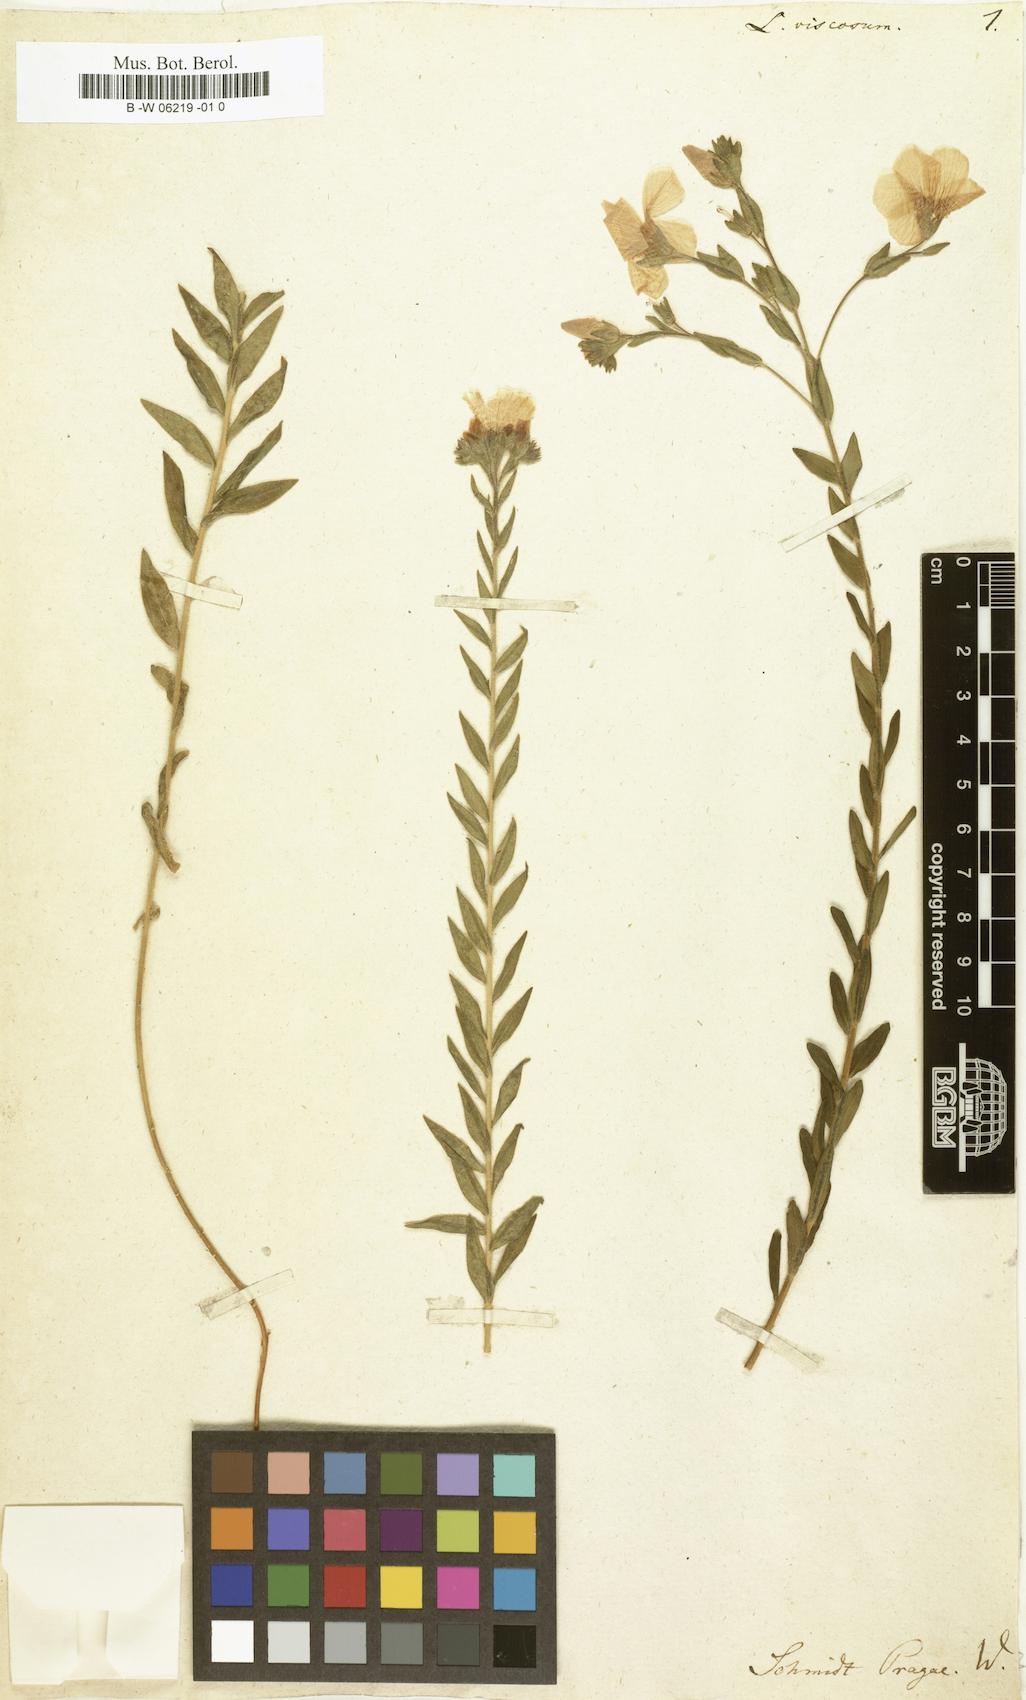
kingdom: Plantae
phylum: Tracheophyta
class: Magnoliopsida
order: Malpighiales
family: Linaceae
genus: Linum
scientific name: Linum viscosum
